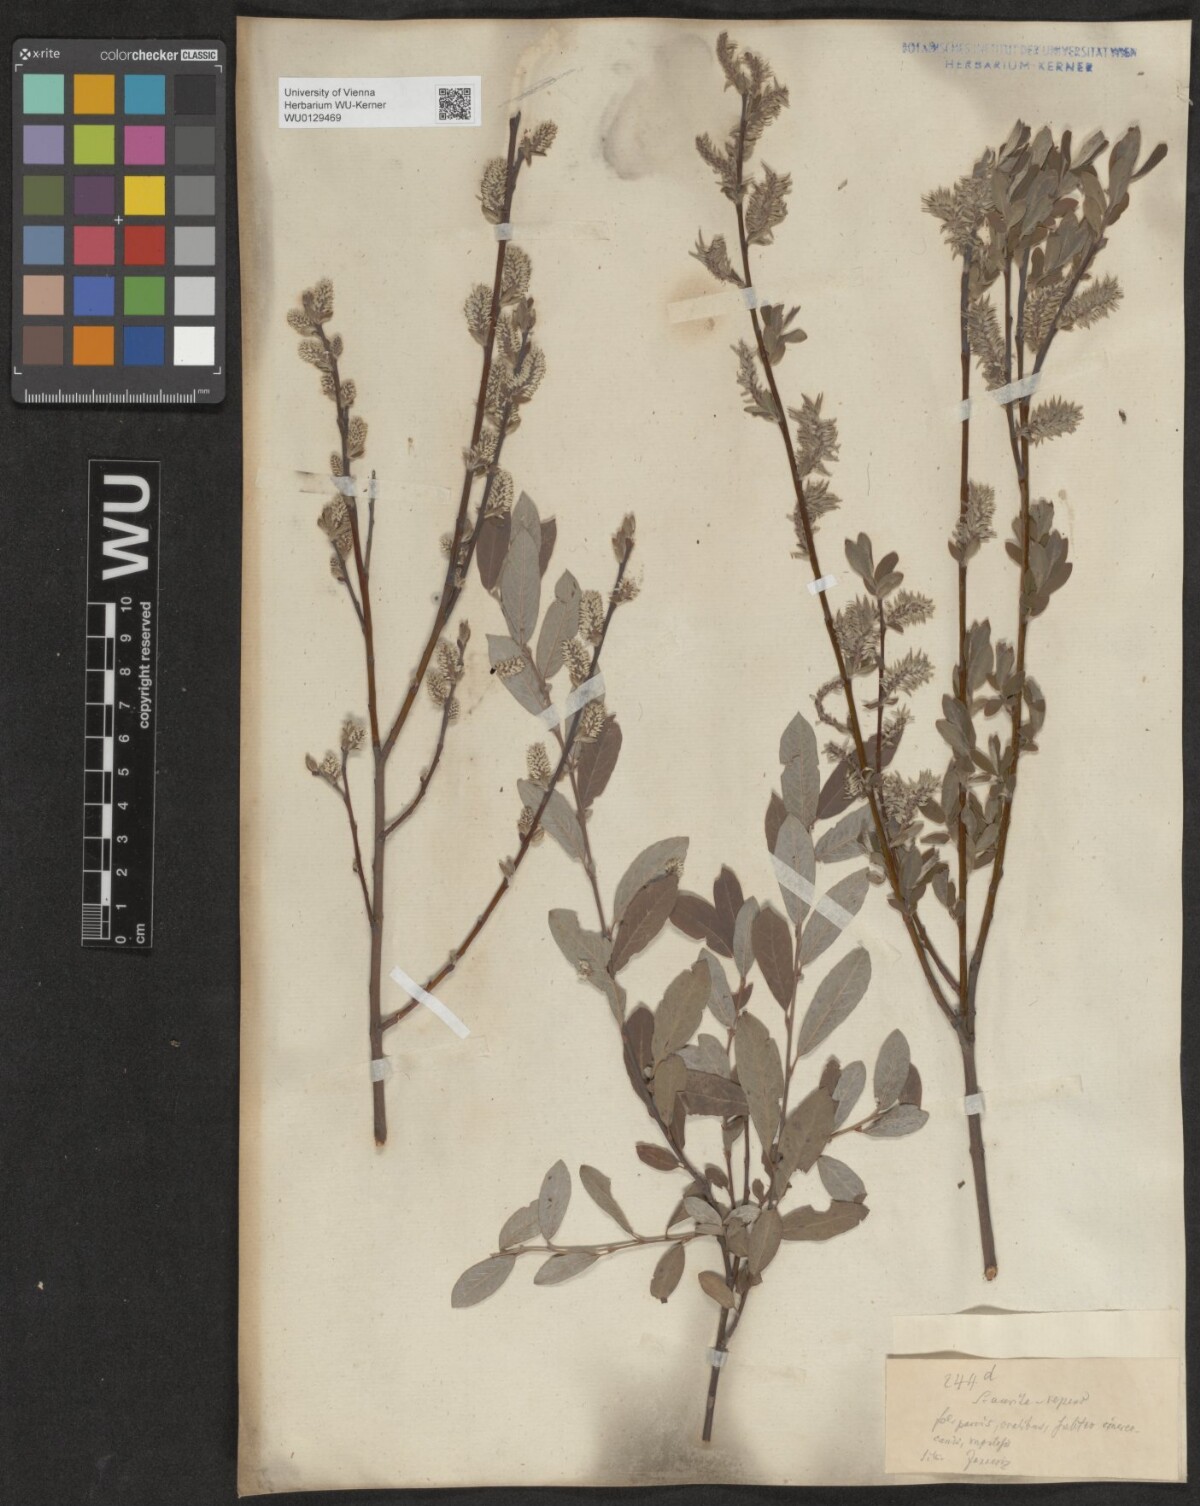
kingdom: Plantae
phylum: Tracheophyta
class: Magnoliopsida
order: Malpighiales
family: Salicaceae
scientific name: Salicaceae
